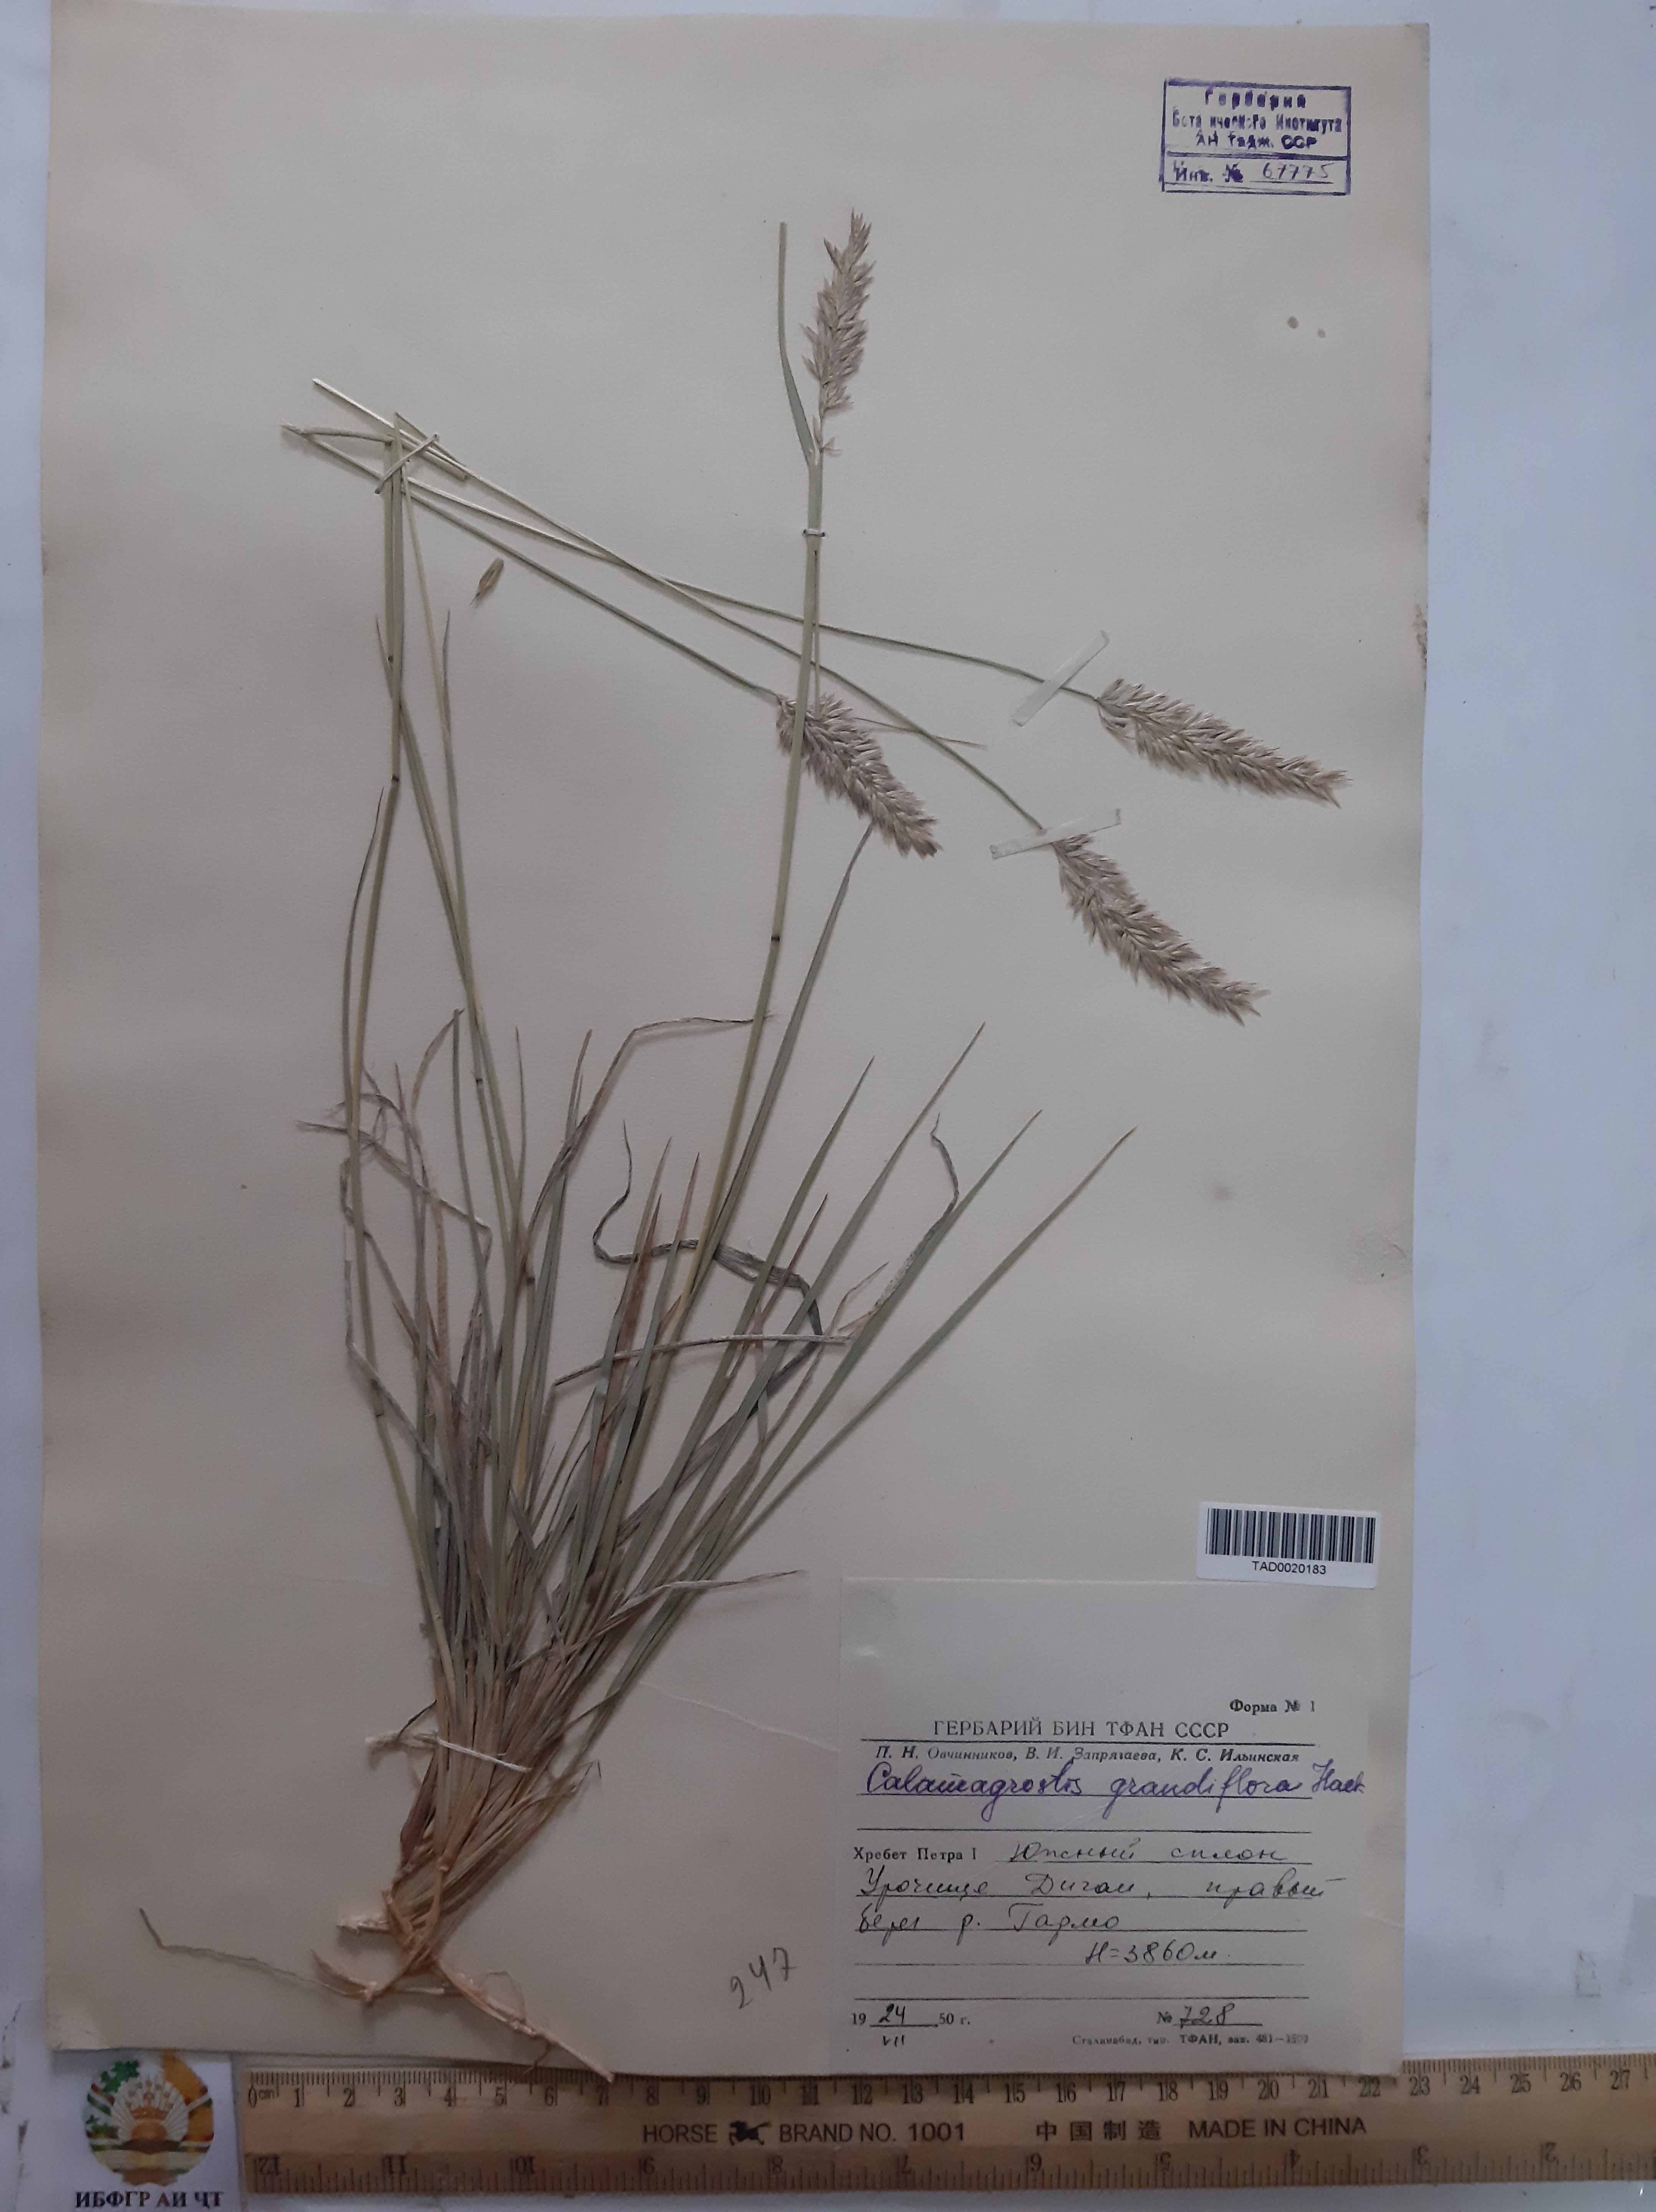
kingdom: Plantae
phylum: Tracheophyta
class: Liliopsida
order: Poales
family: Poaceae
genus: Calamagrostis
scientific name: Calamagrostis holciformis
